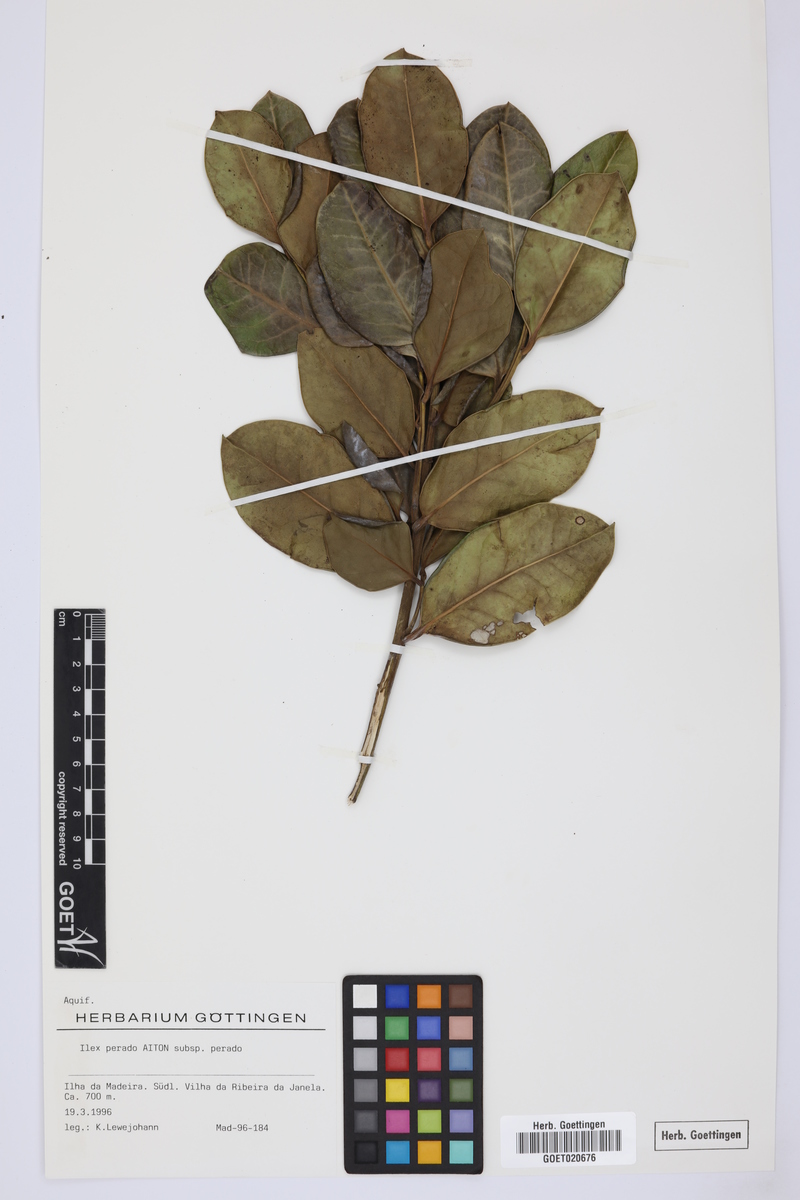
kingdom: Plantae
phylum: Tracheophyta
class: Magnoliopsida
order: Aquifoliales
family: Aquifoliaceae
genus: Ilex
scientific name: Ilex perado
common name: Madeira holly
